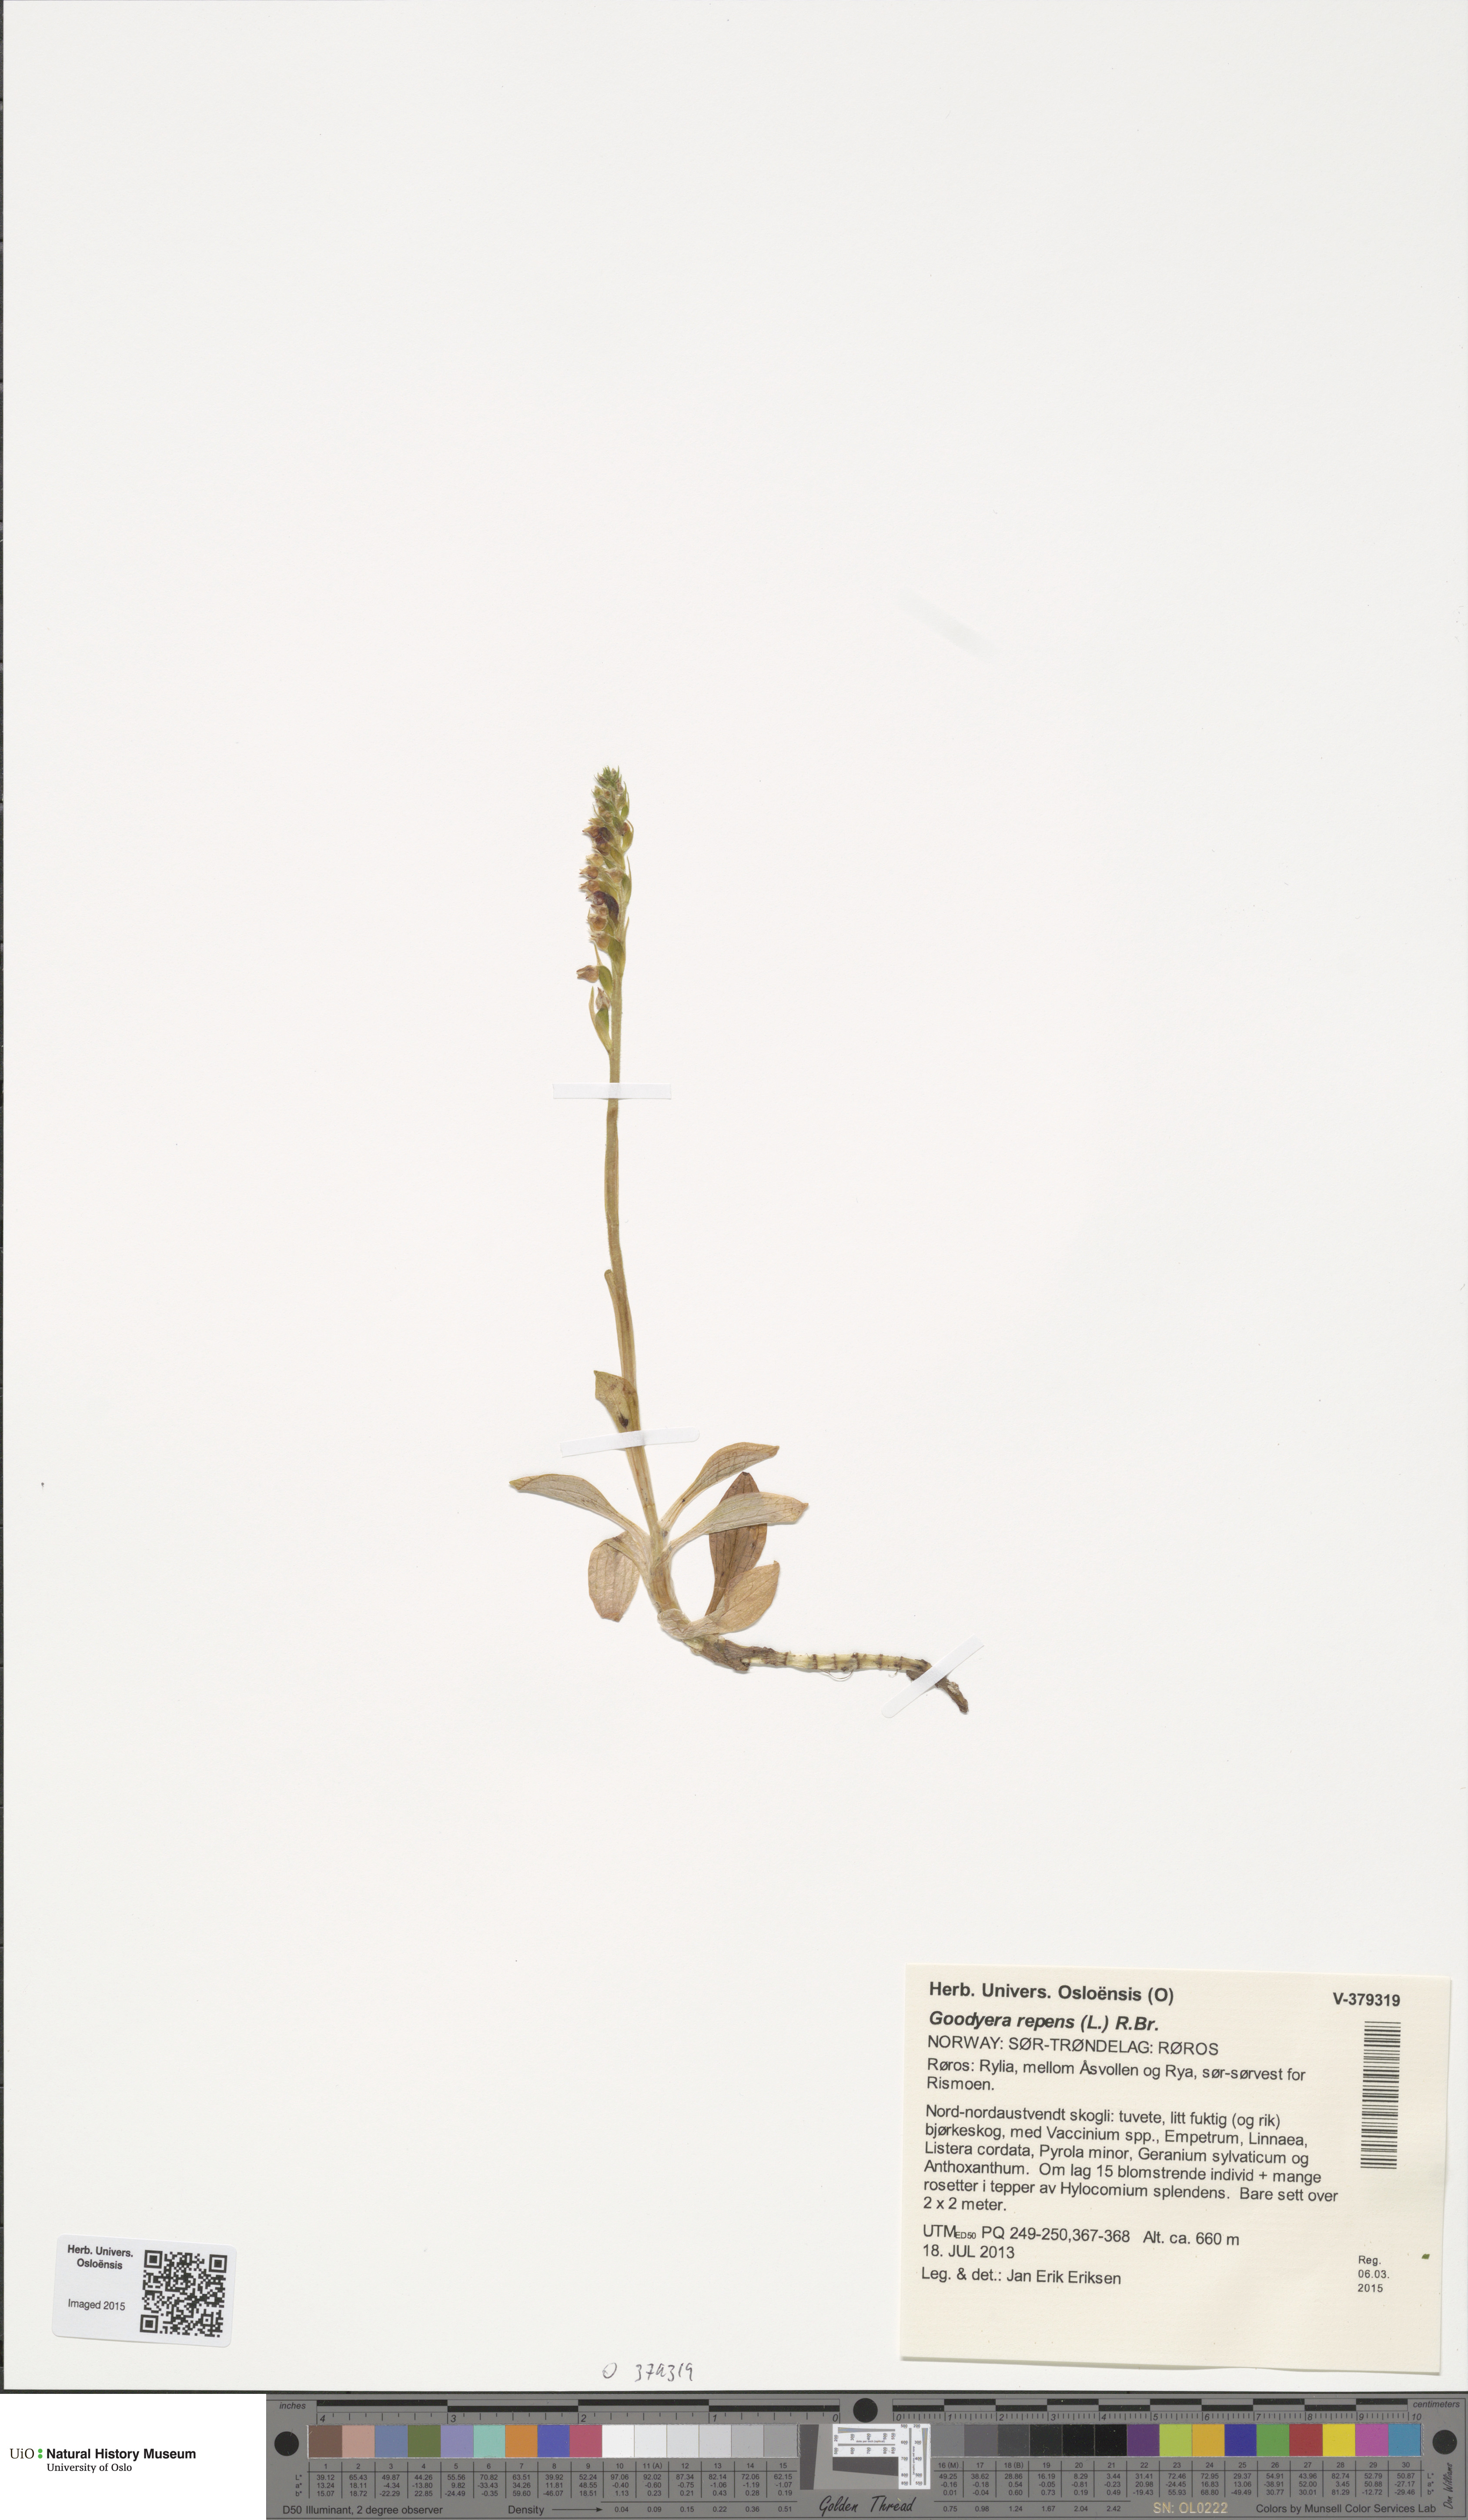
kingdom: Plantae
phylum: Tracheophyta
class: Liliopsida
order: Asparagales
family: Orchidaceae
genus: Goodyera
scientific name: Goodyera repens
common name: Creeping lady's-tresses
